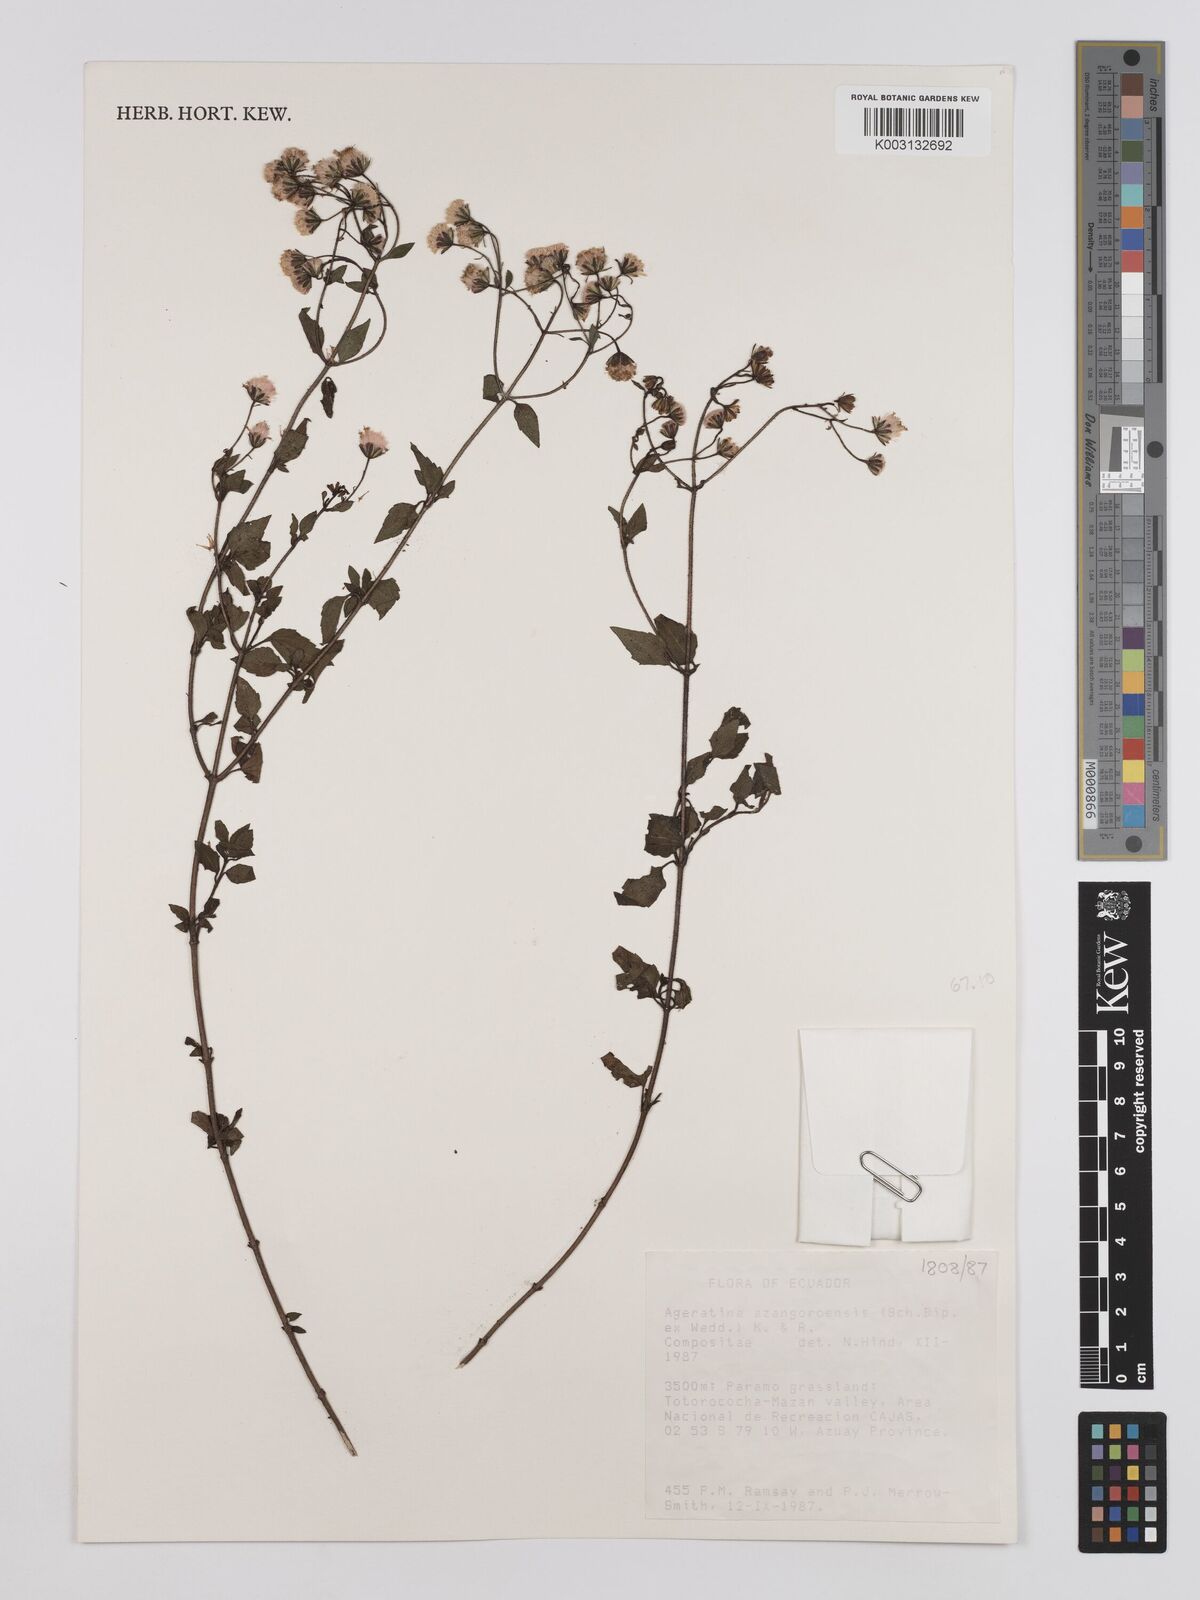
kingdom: Plantae
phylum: Tracheophyta
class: Magnoliopsida
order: Asterales
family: Asteraceae
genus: Ageratina
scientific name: Ageratina glechonophylla
